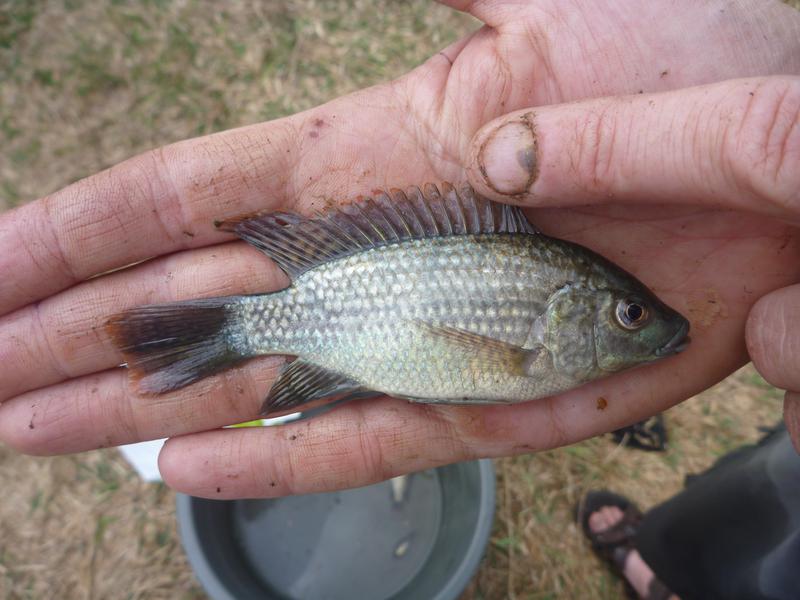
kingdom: Animalia
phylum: Chordata
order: Perciformes
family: Cichlidae
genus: Oreochromis
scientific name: Oreochromis shiranus
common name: Chilwa tilapia
